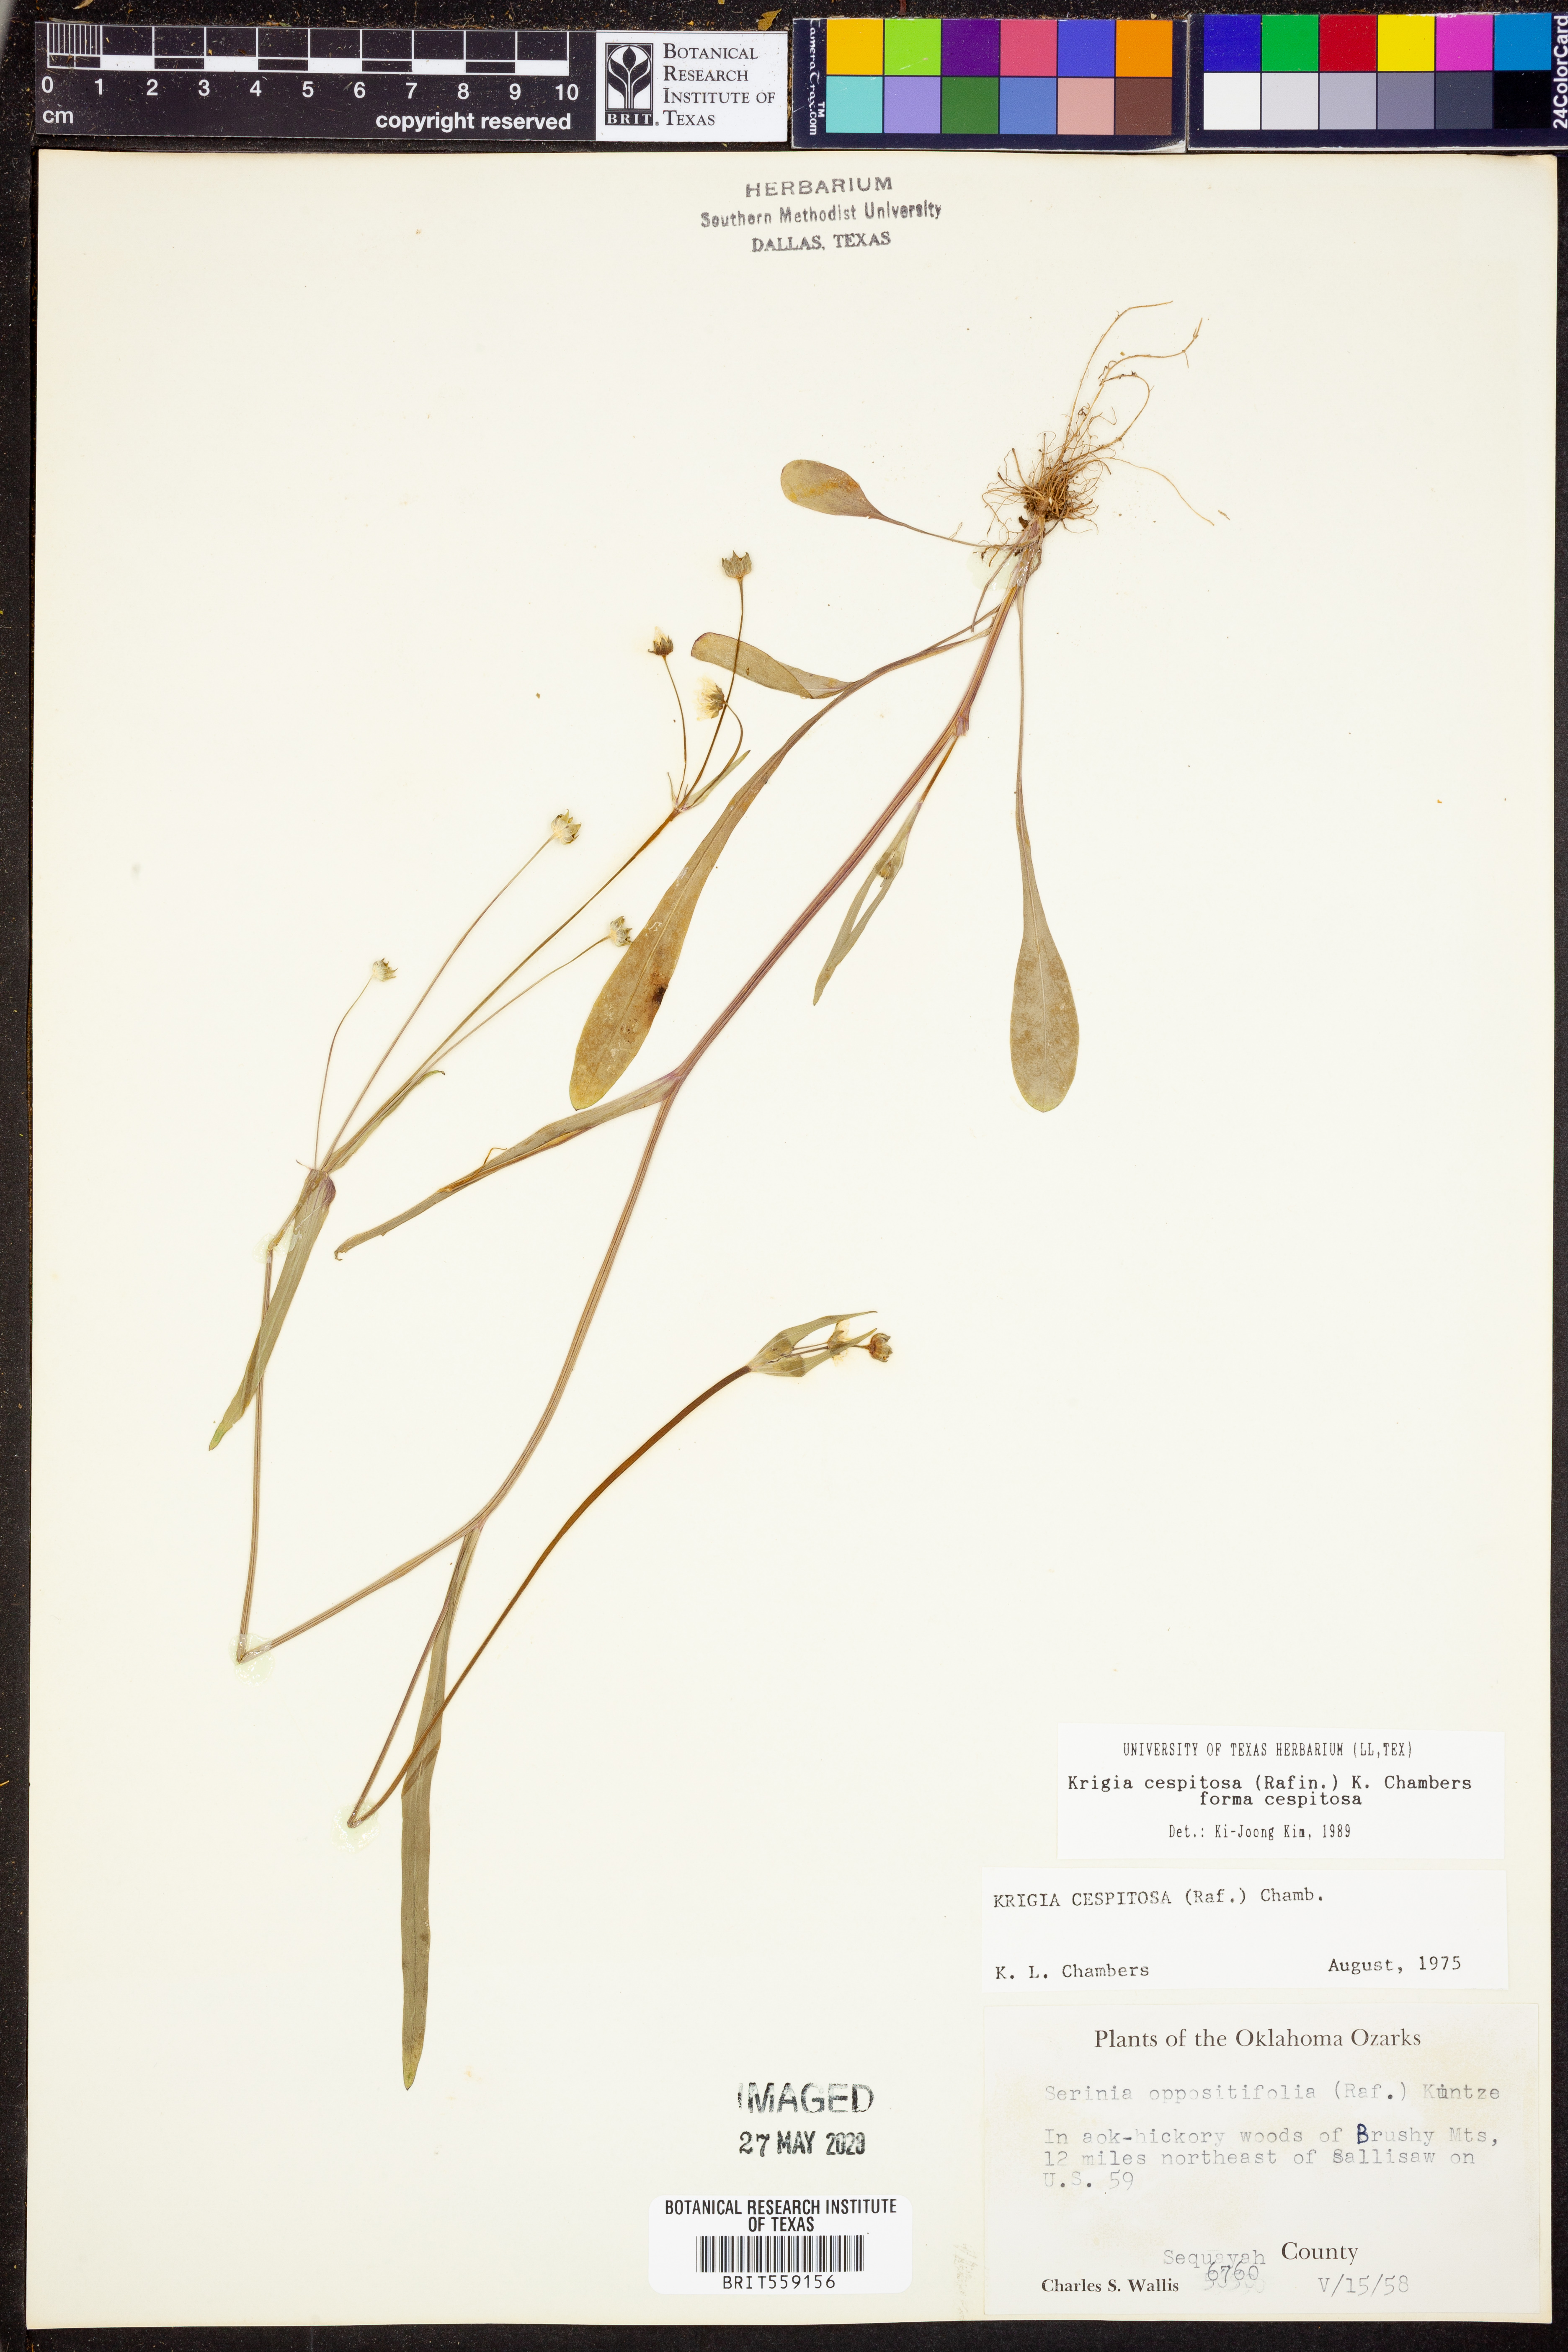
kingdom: Plantae
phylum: Tracheophyta
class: Magnoliopsida
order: Asterales
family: Asteraceae
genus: Krigia
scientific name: Krigia cespitosa
